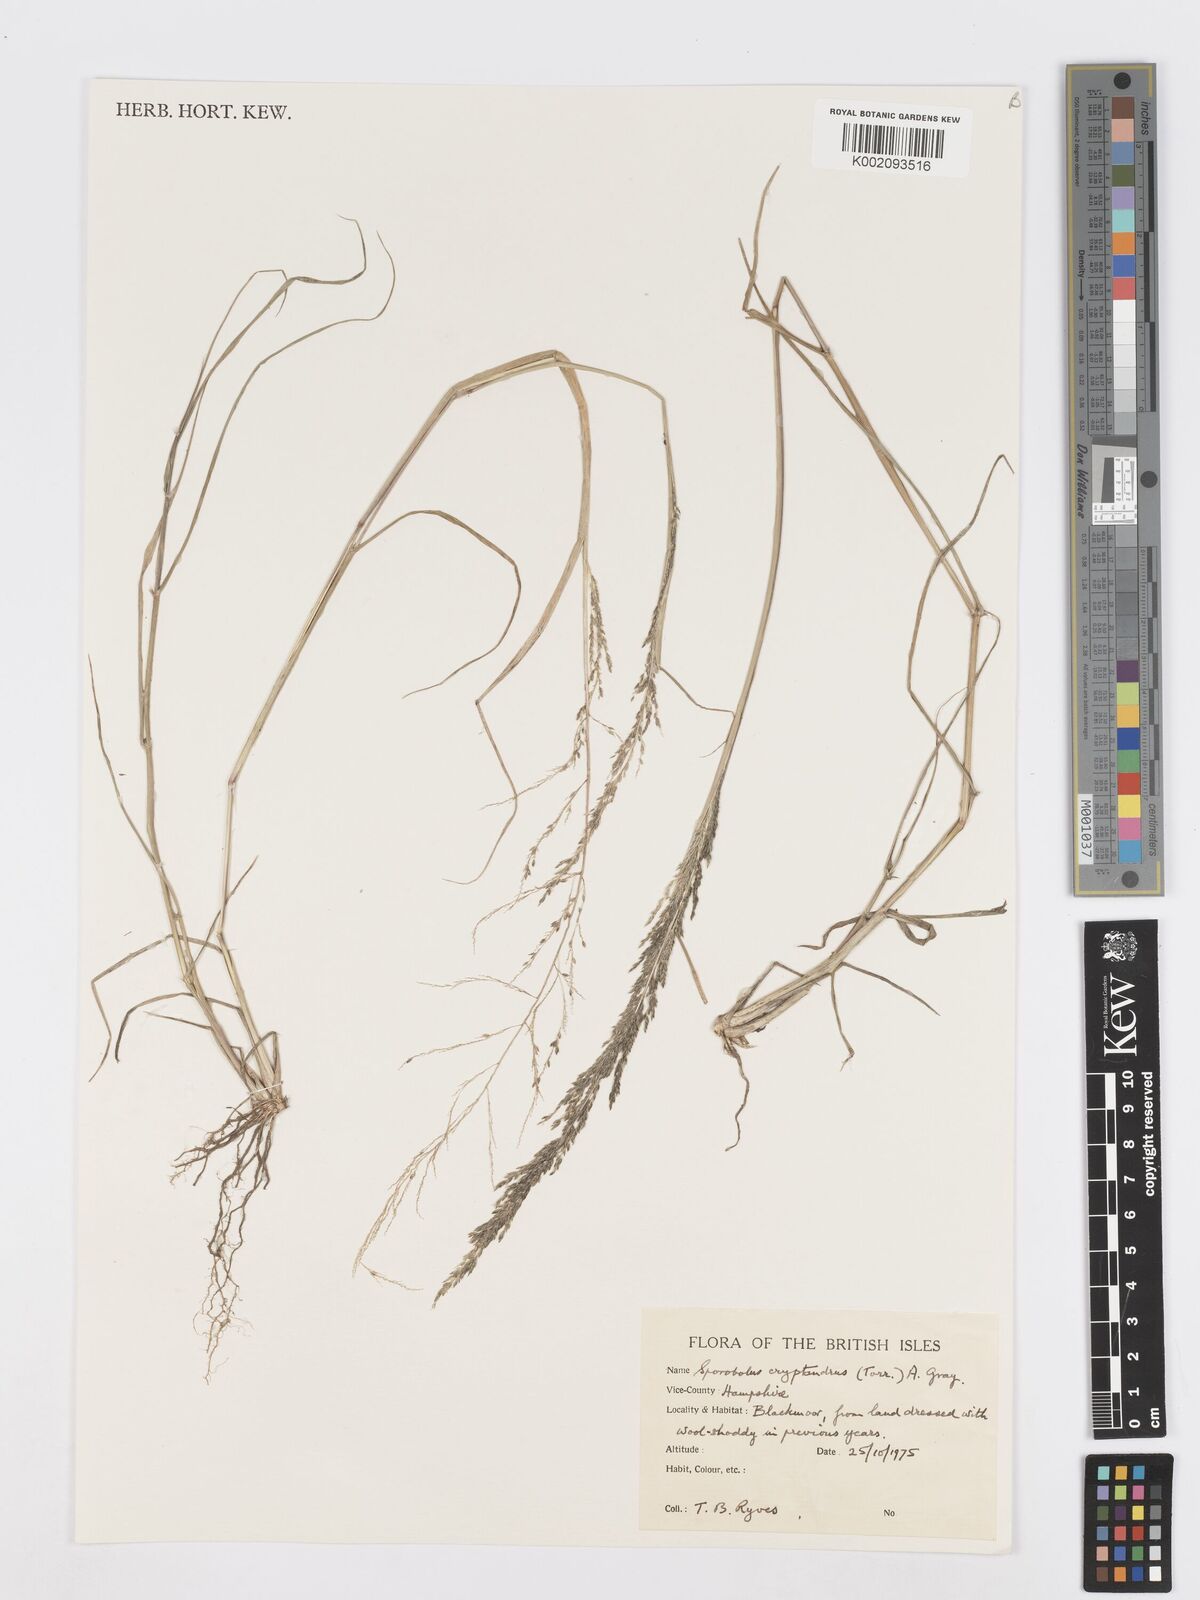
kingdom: Plantae
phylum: Tracheophyta
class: Liliopsida
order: Poales
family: Poaceae
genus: Sporobolus
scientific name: Sporobolus cryptandrus
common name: Sand dropseed
